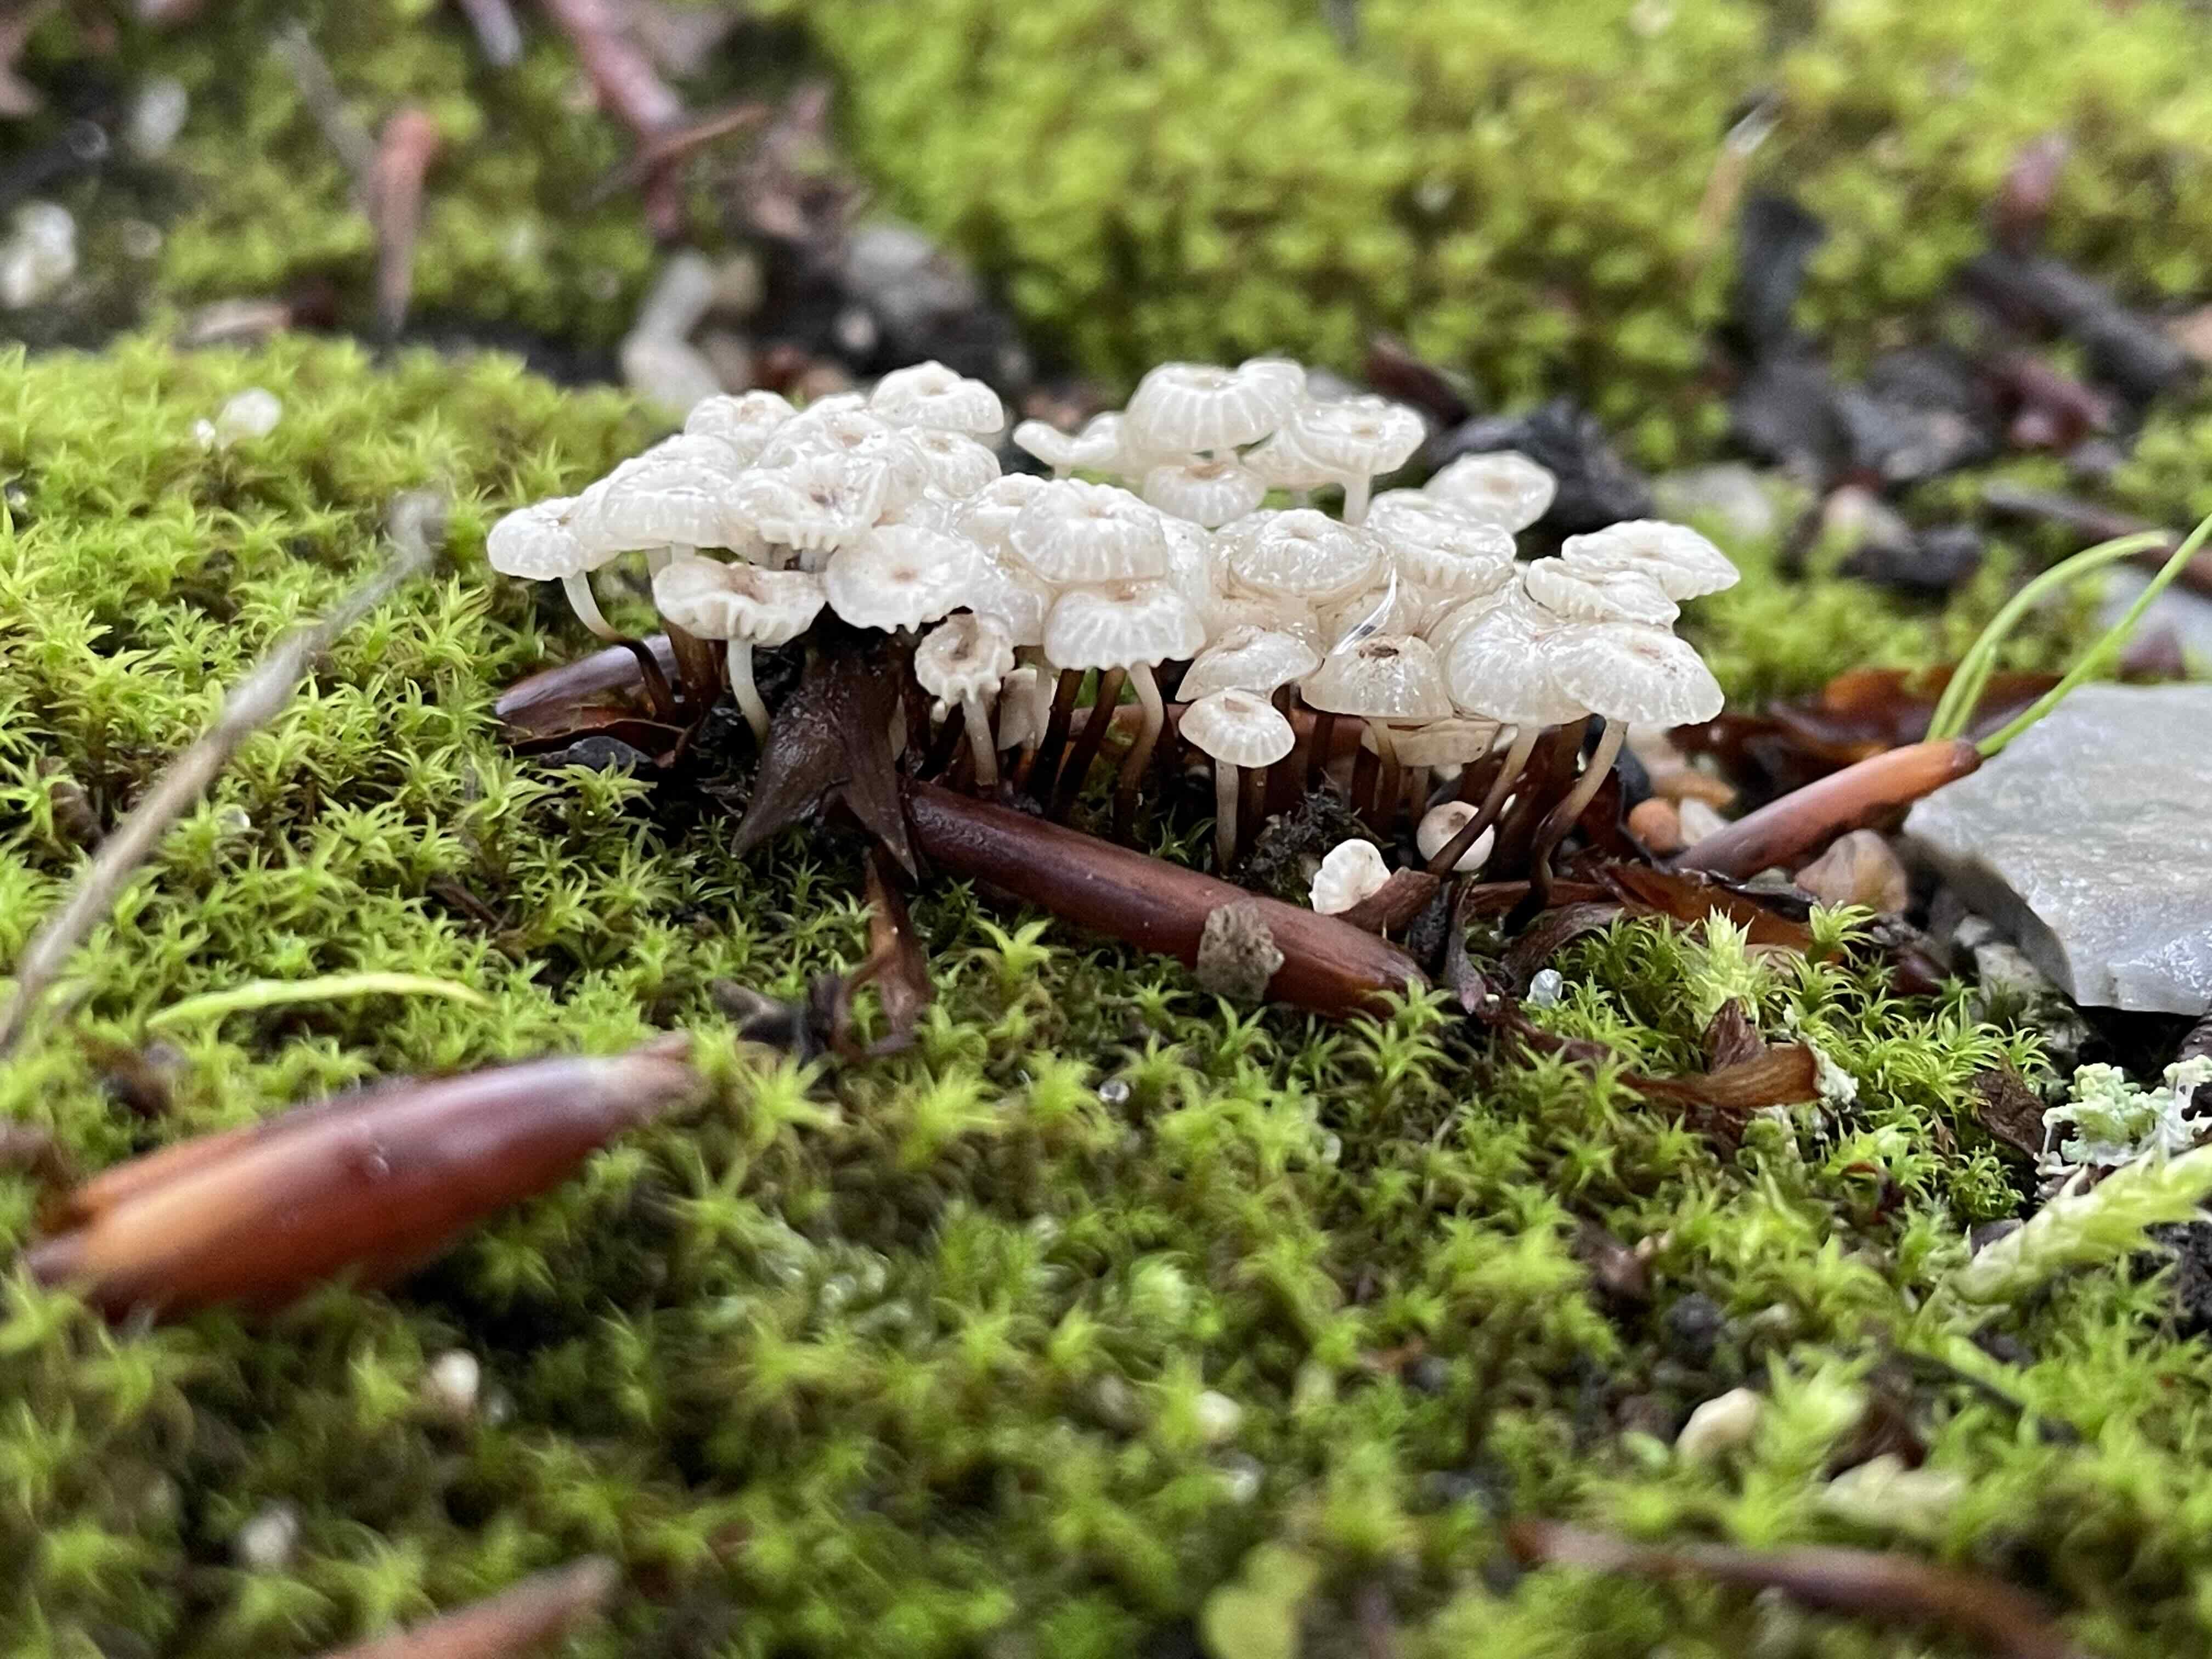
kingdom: Fungi
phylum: Basidiomycota
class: Agaricomycetes
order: Agaricales
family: Marasmiaceae
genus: Marasmius
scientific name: Marasmius rotula
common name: hjul-bruskhat
